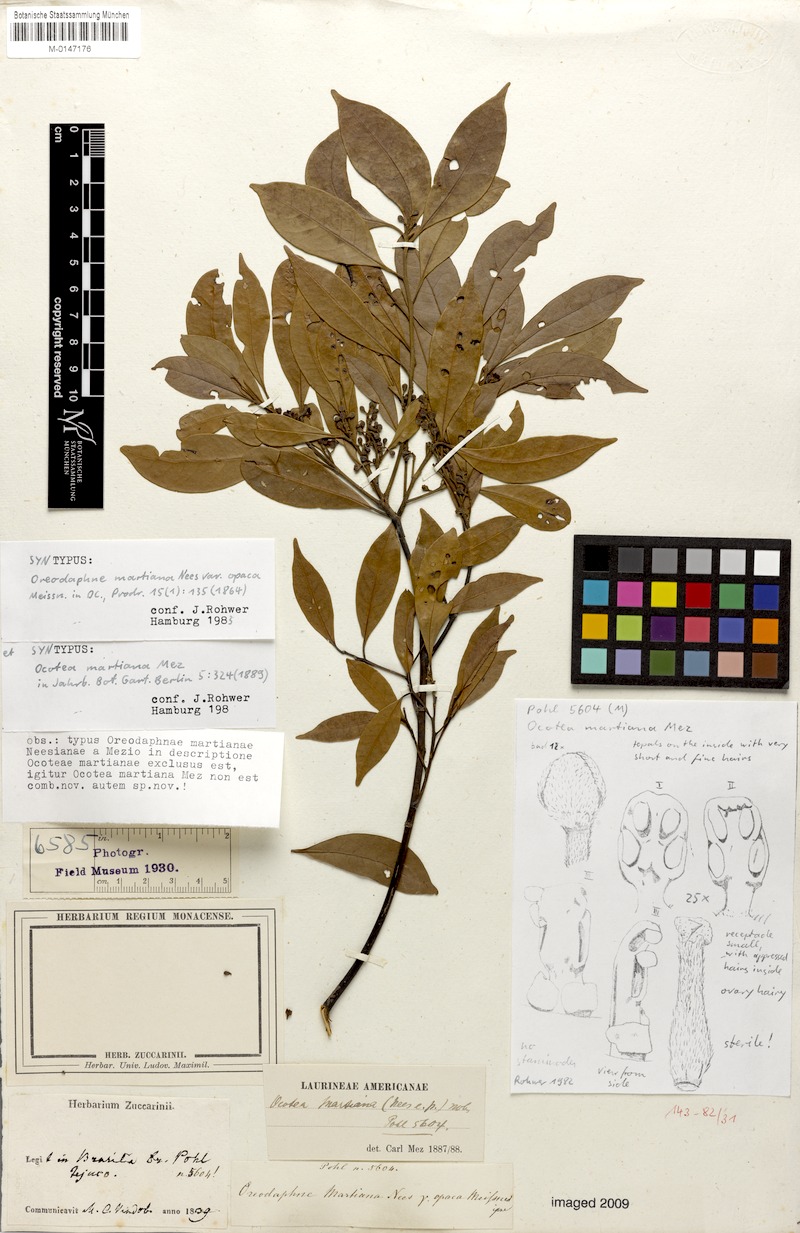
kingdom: Plantae
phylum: Tracheophyta
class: Magnoliopsida
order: Laurales
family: Lauraceae
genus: Ocotea
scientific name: Ocotea lancifolia
